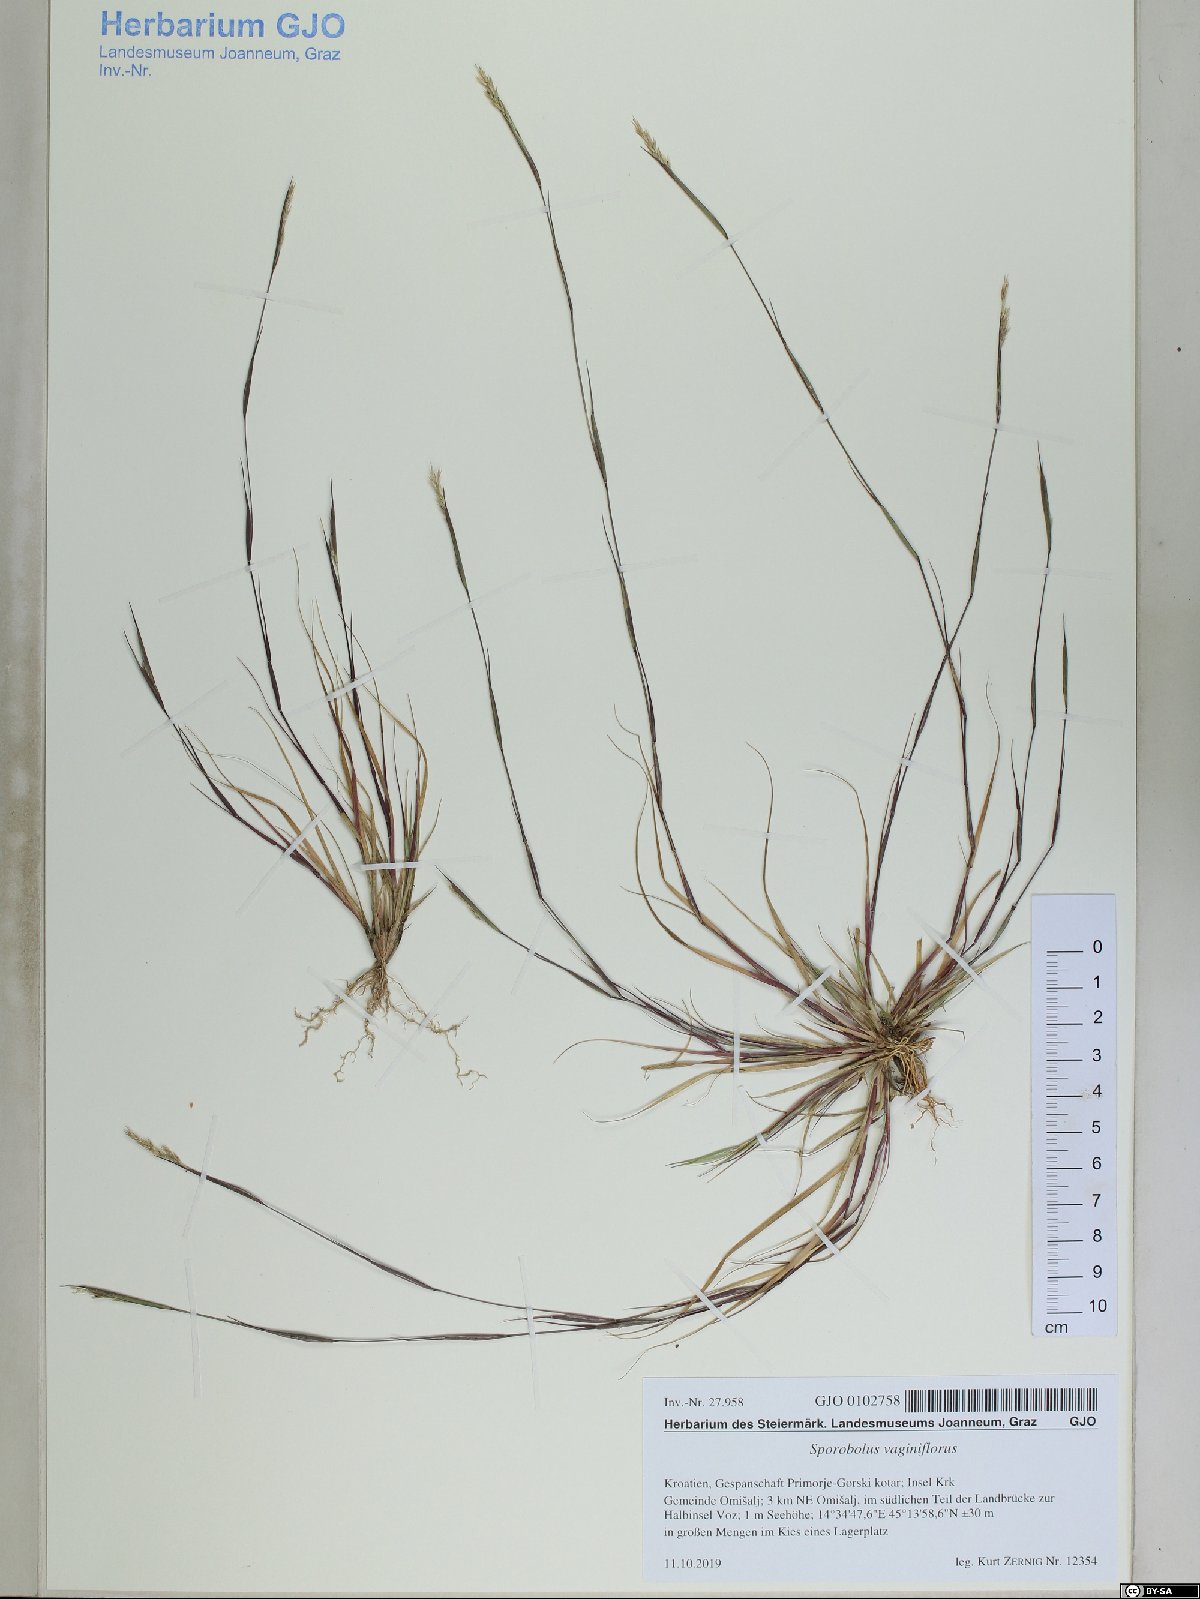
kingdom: Plantae
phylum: Tracheophyta
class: Liliopsida
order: Poales
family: Poaceae
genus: Sporobolus
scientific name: Sporobolus vaginiflorus
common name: Poverty dropseed
